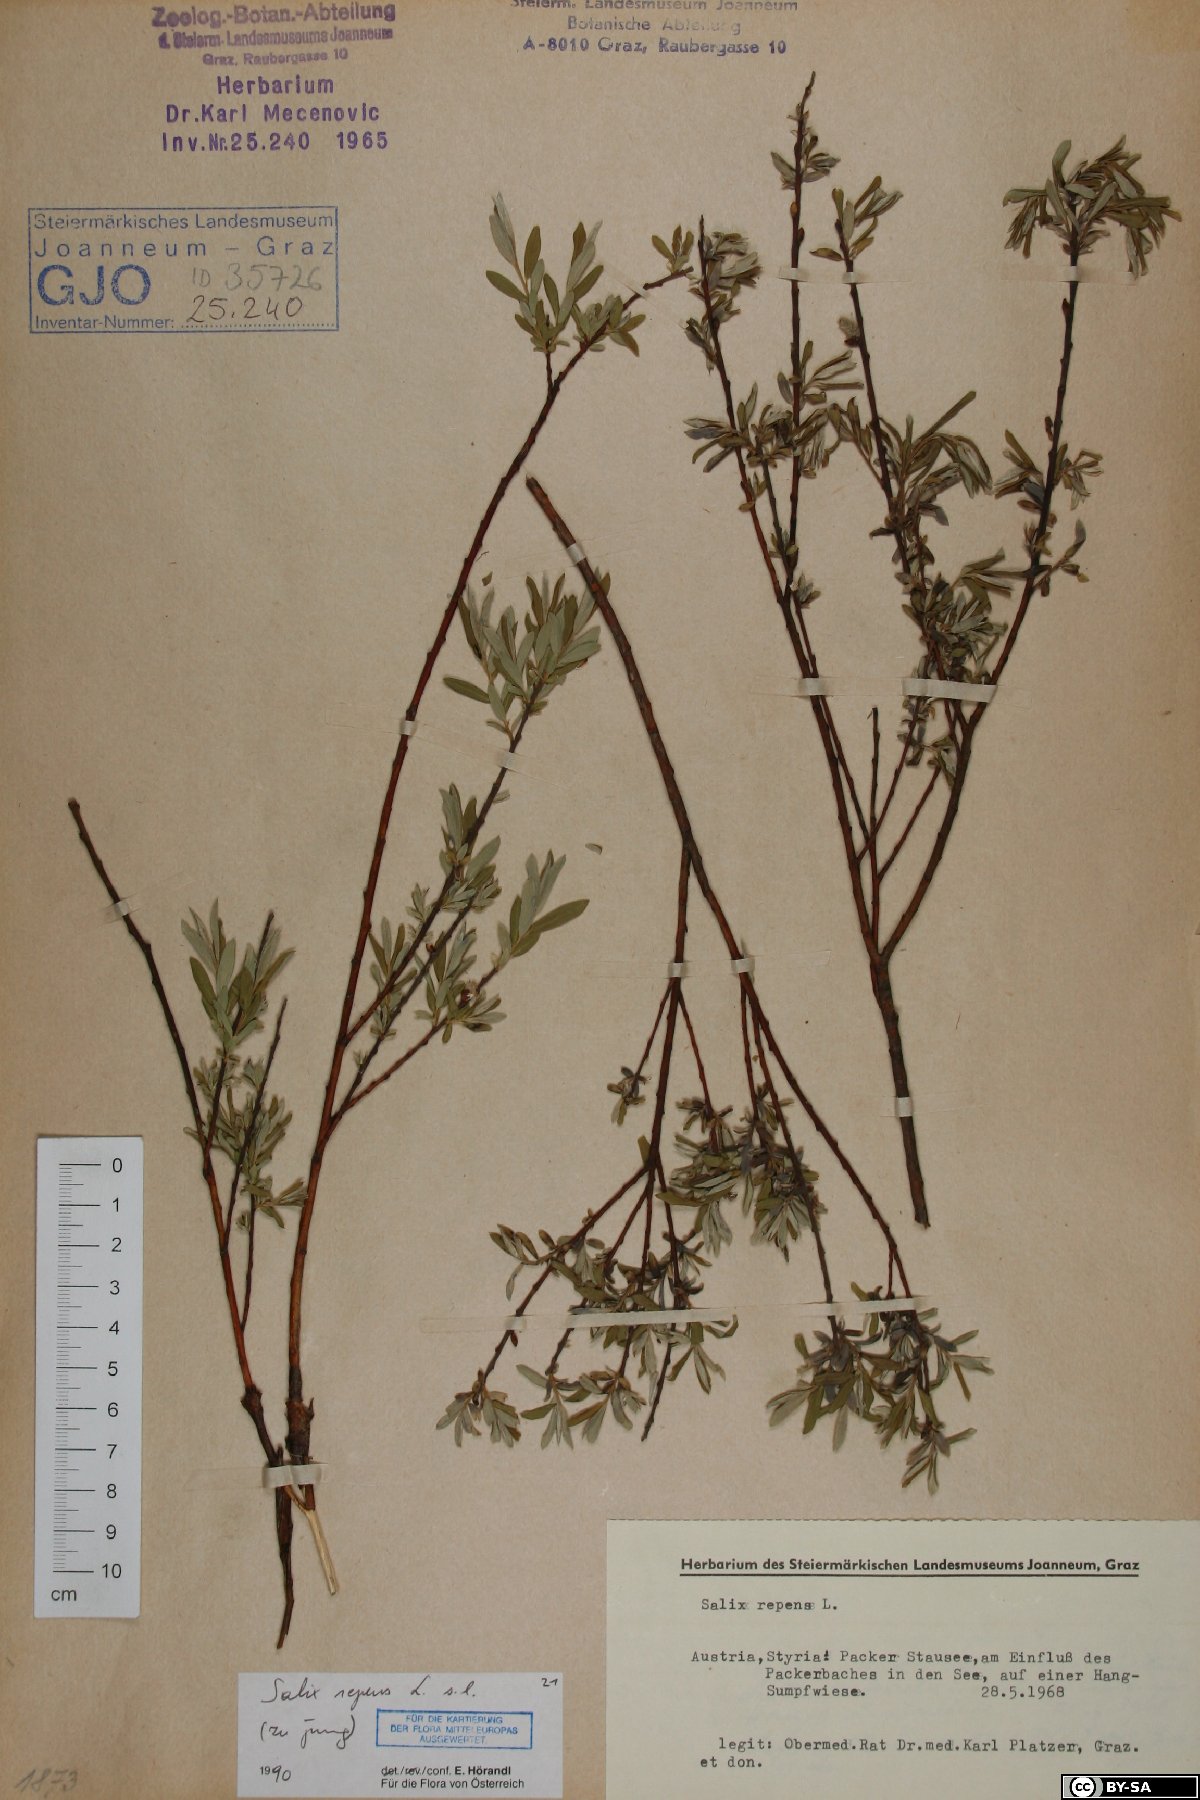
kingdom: Plantae
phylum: Tracheophyta
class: Magnoliopsida
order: Malpighiales
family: Salicaceae
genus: Salix
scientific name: Salix repens
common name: Creeping willow
